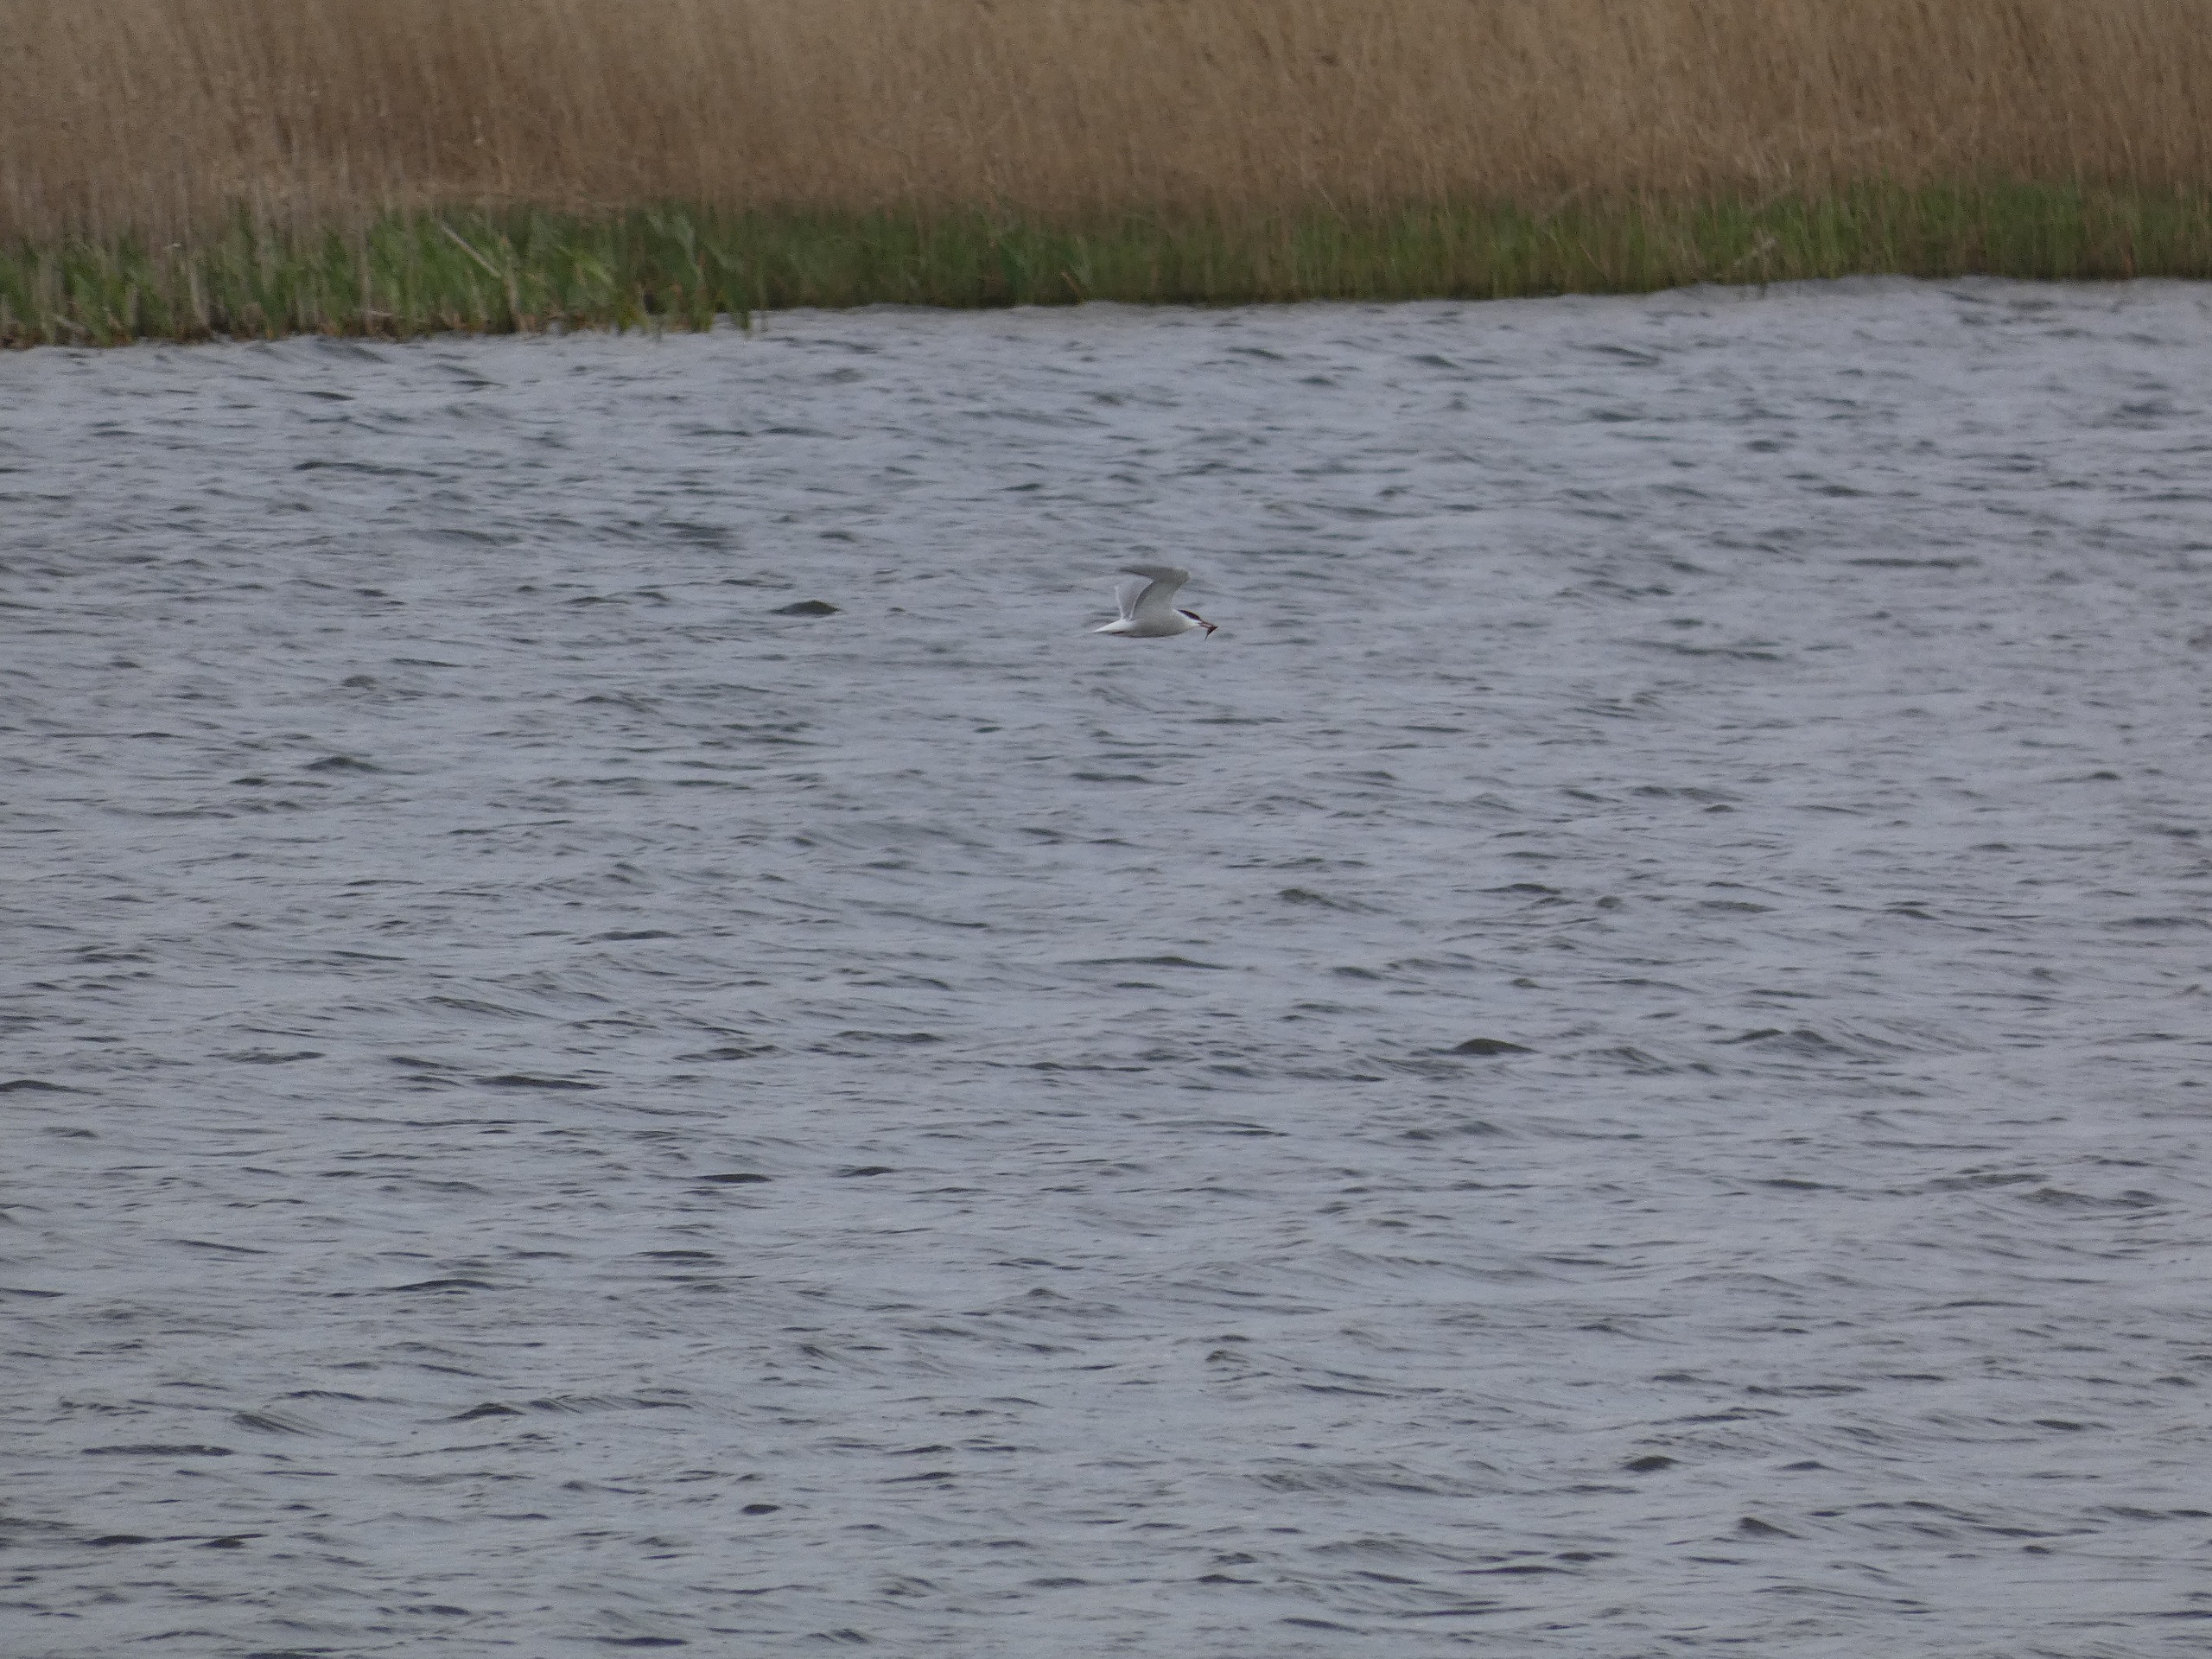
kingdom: Animalia
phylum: Chordata
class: Aves
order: Charadriiformes
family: Laridae
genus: Sterna
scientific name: Sterna hirundo
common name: Fjordterne
